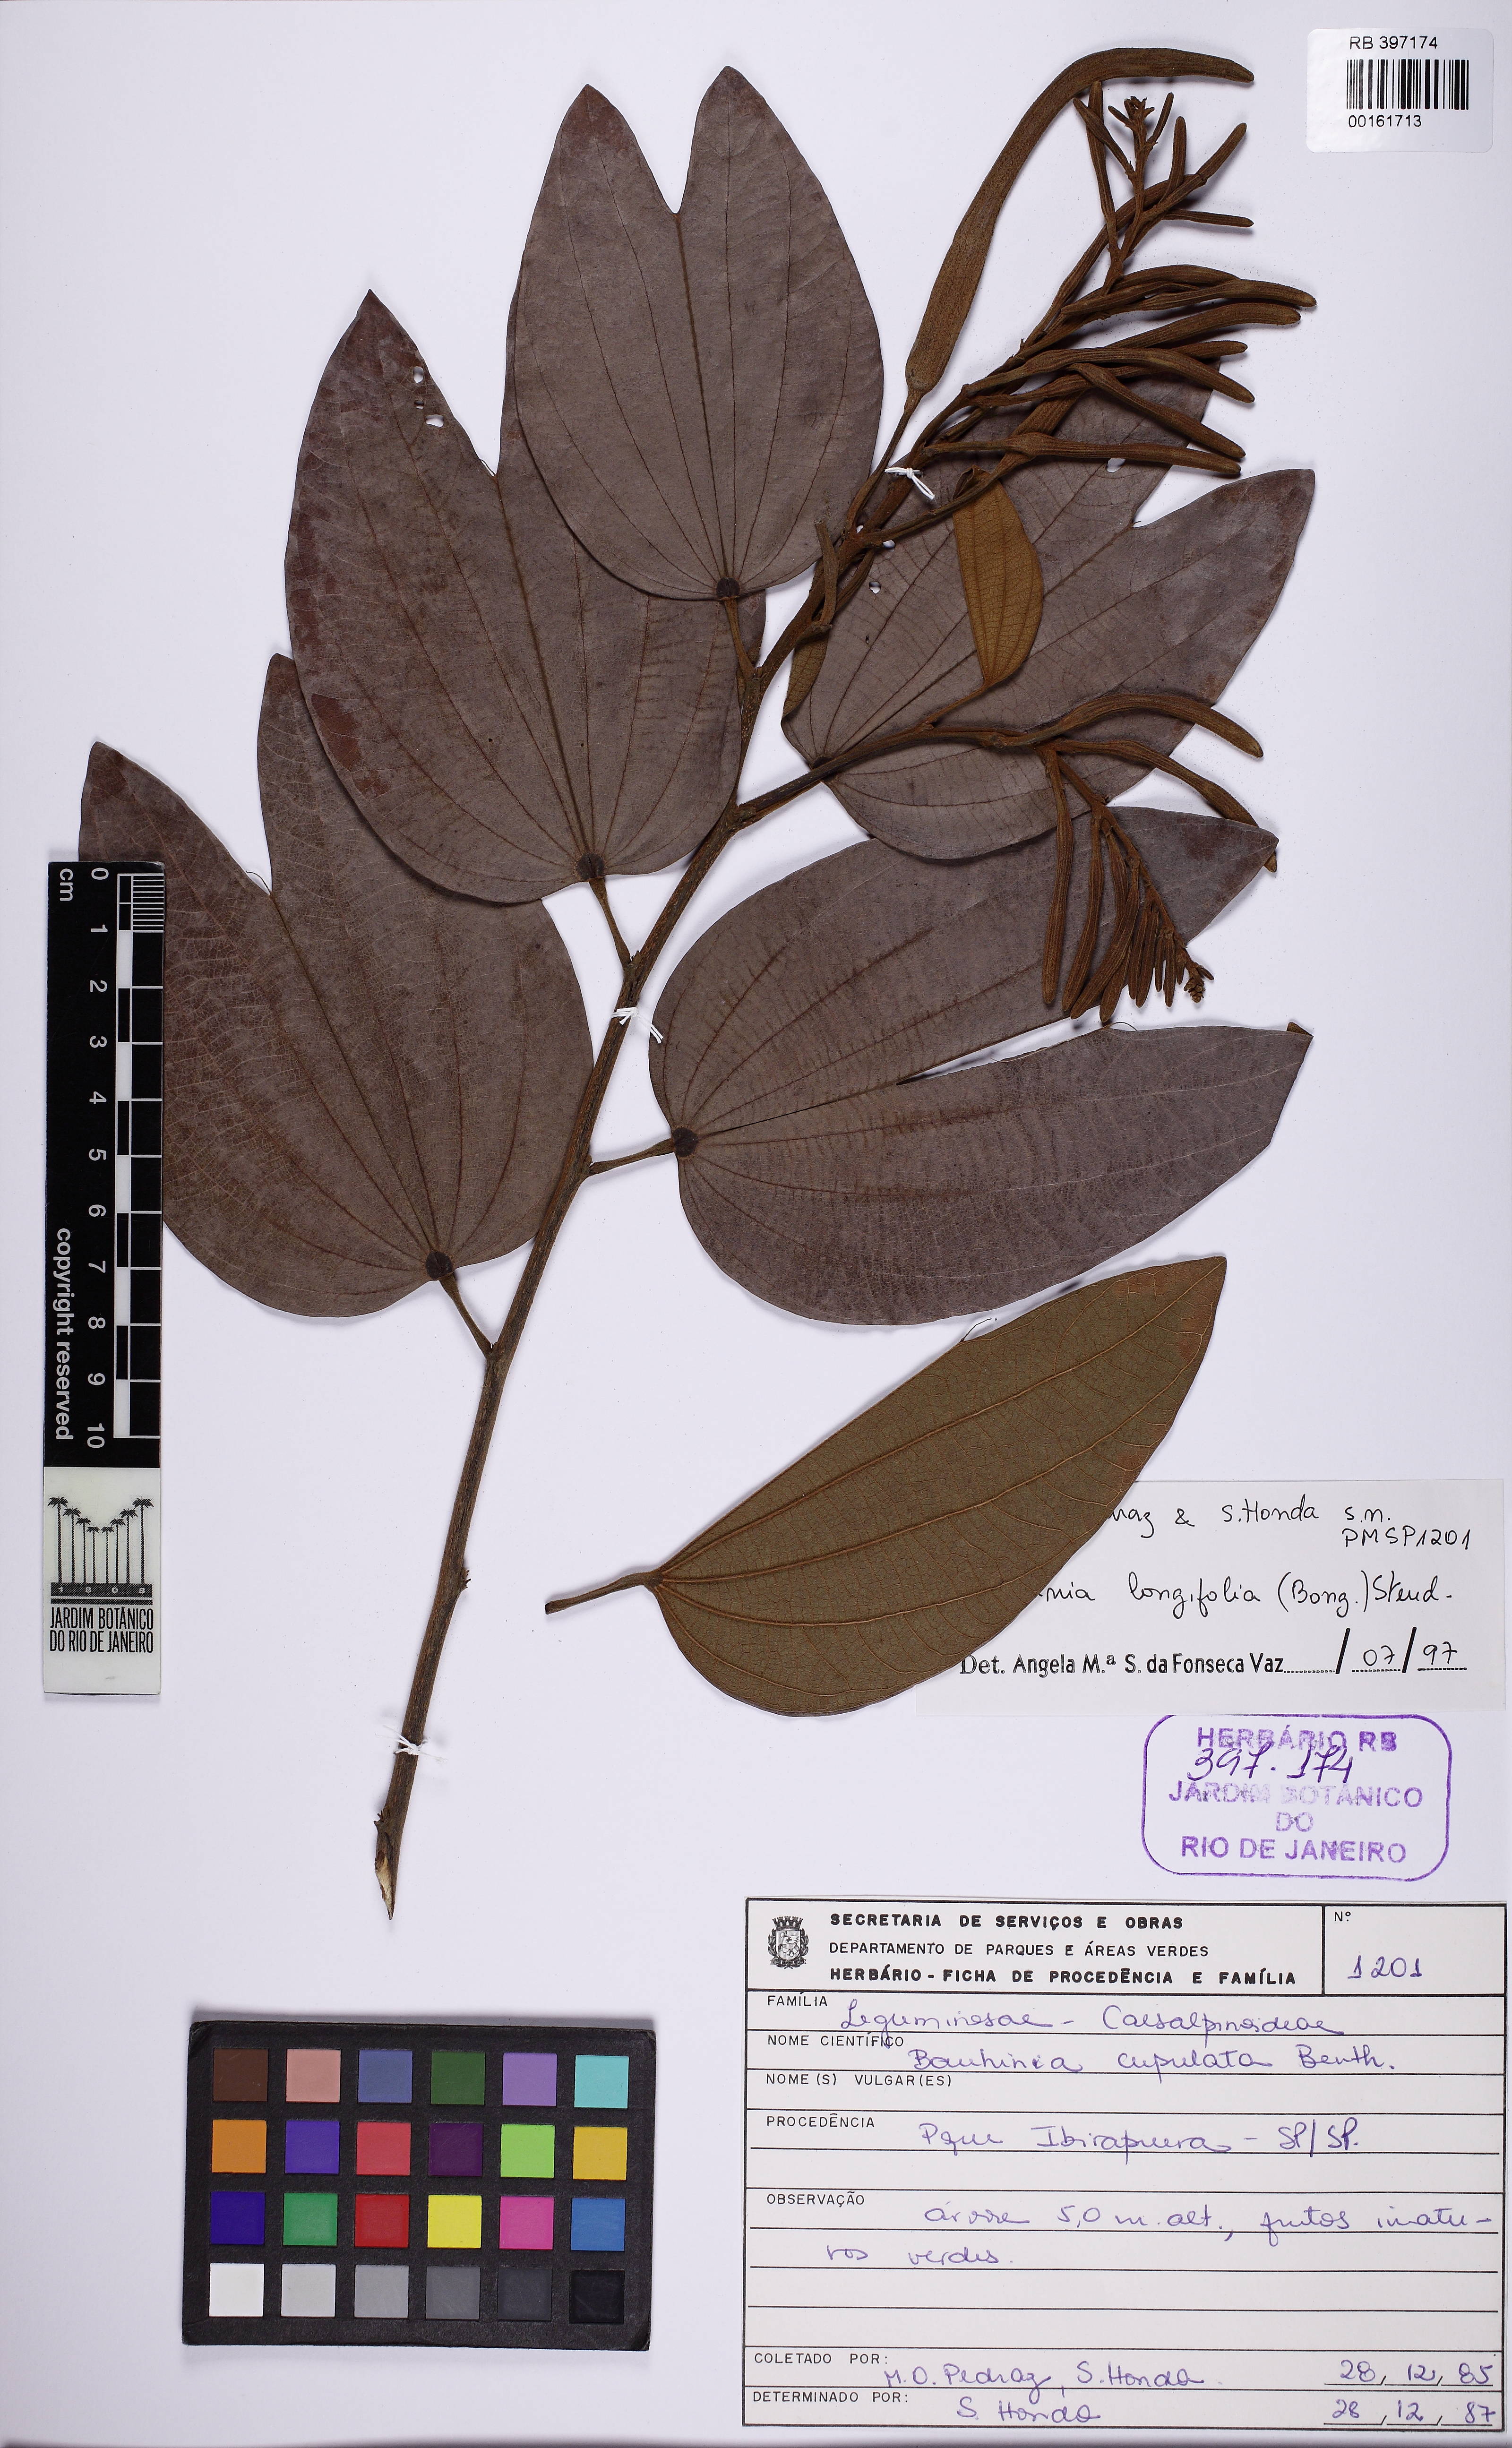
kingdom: Plantae
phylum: Tracheophyta
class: Magnoliopsida
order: Fabales
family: Fabaceae
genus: Bauhinia
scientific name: Bauhinia longifolia
